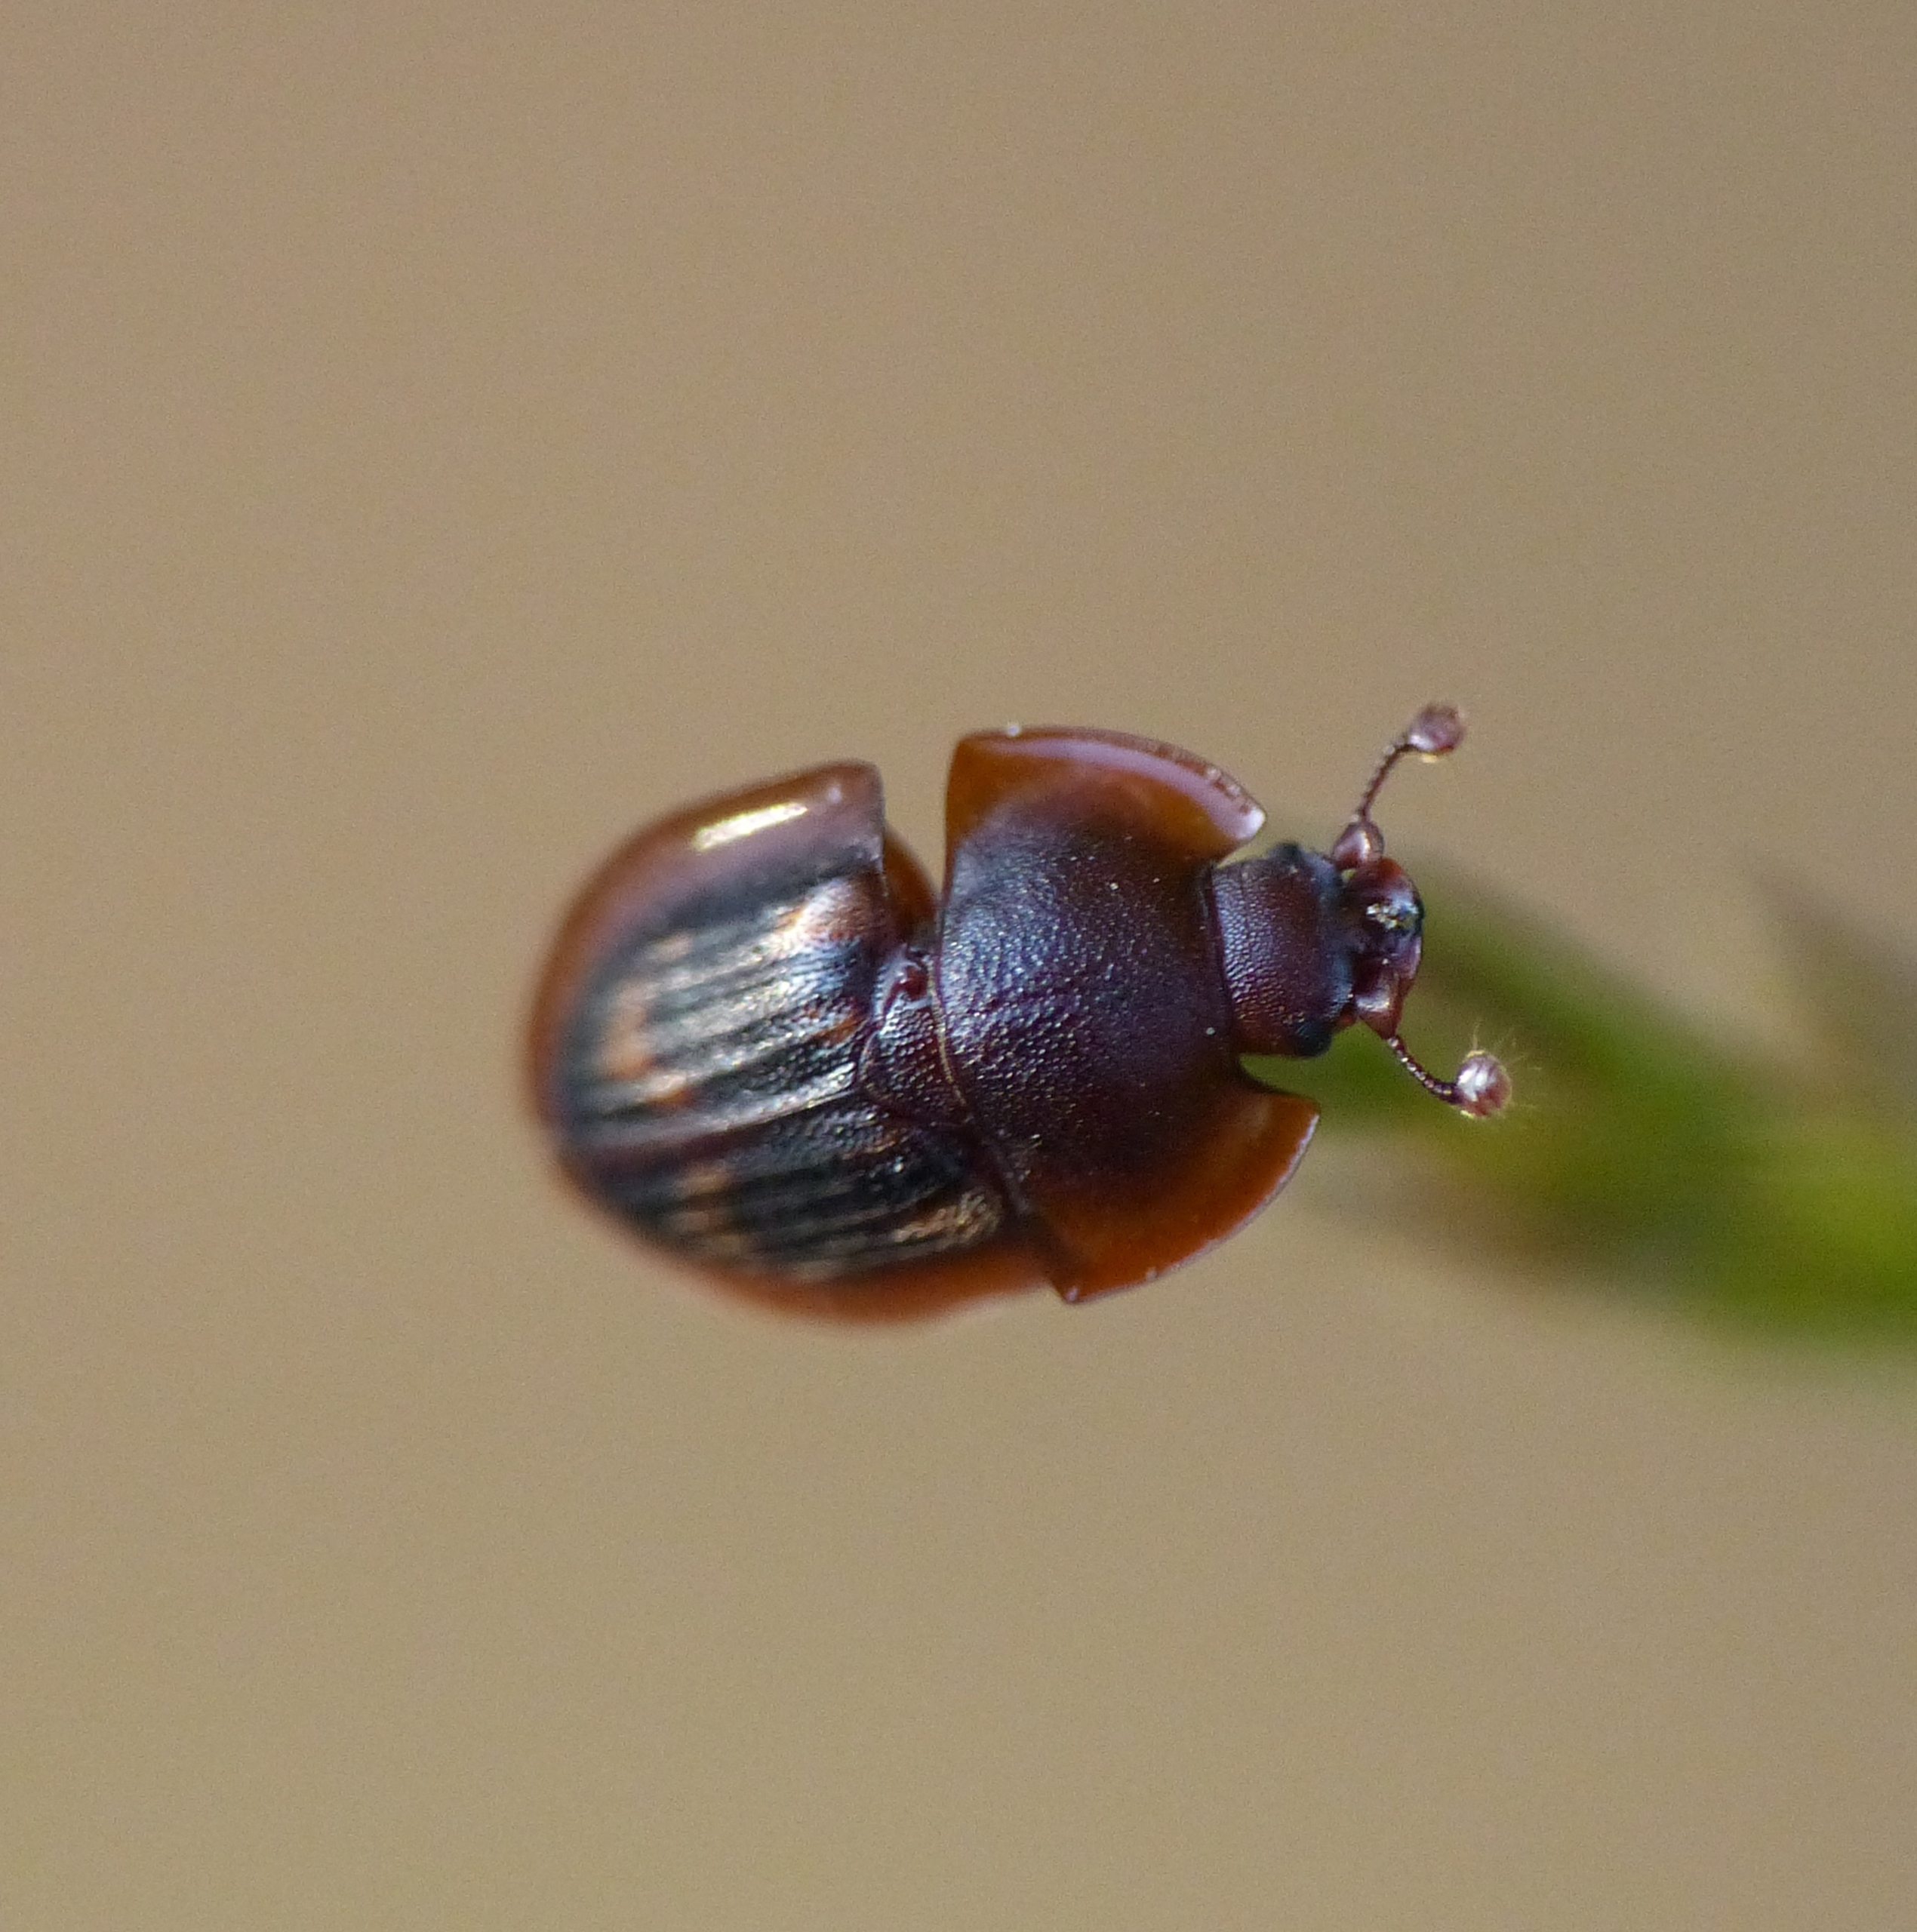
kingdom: Animalia
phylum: Arthropoda
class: Insecta
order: Coleoptera
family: Nitidulidae
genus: Amphotis
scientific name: Amphotis marginata
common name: Myrekøllebille
